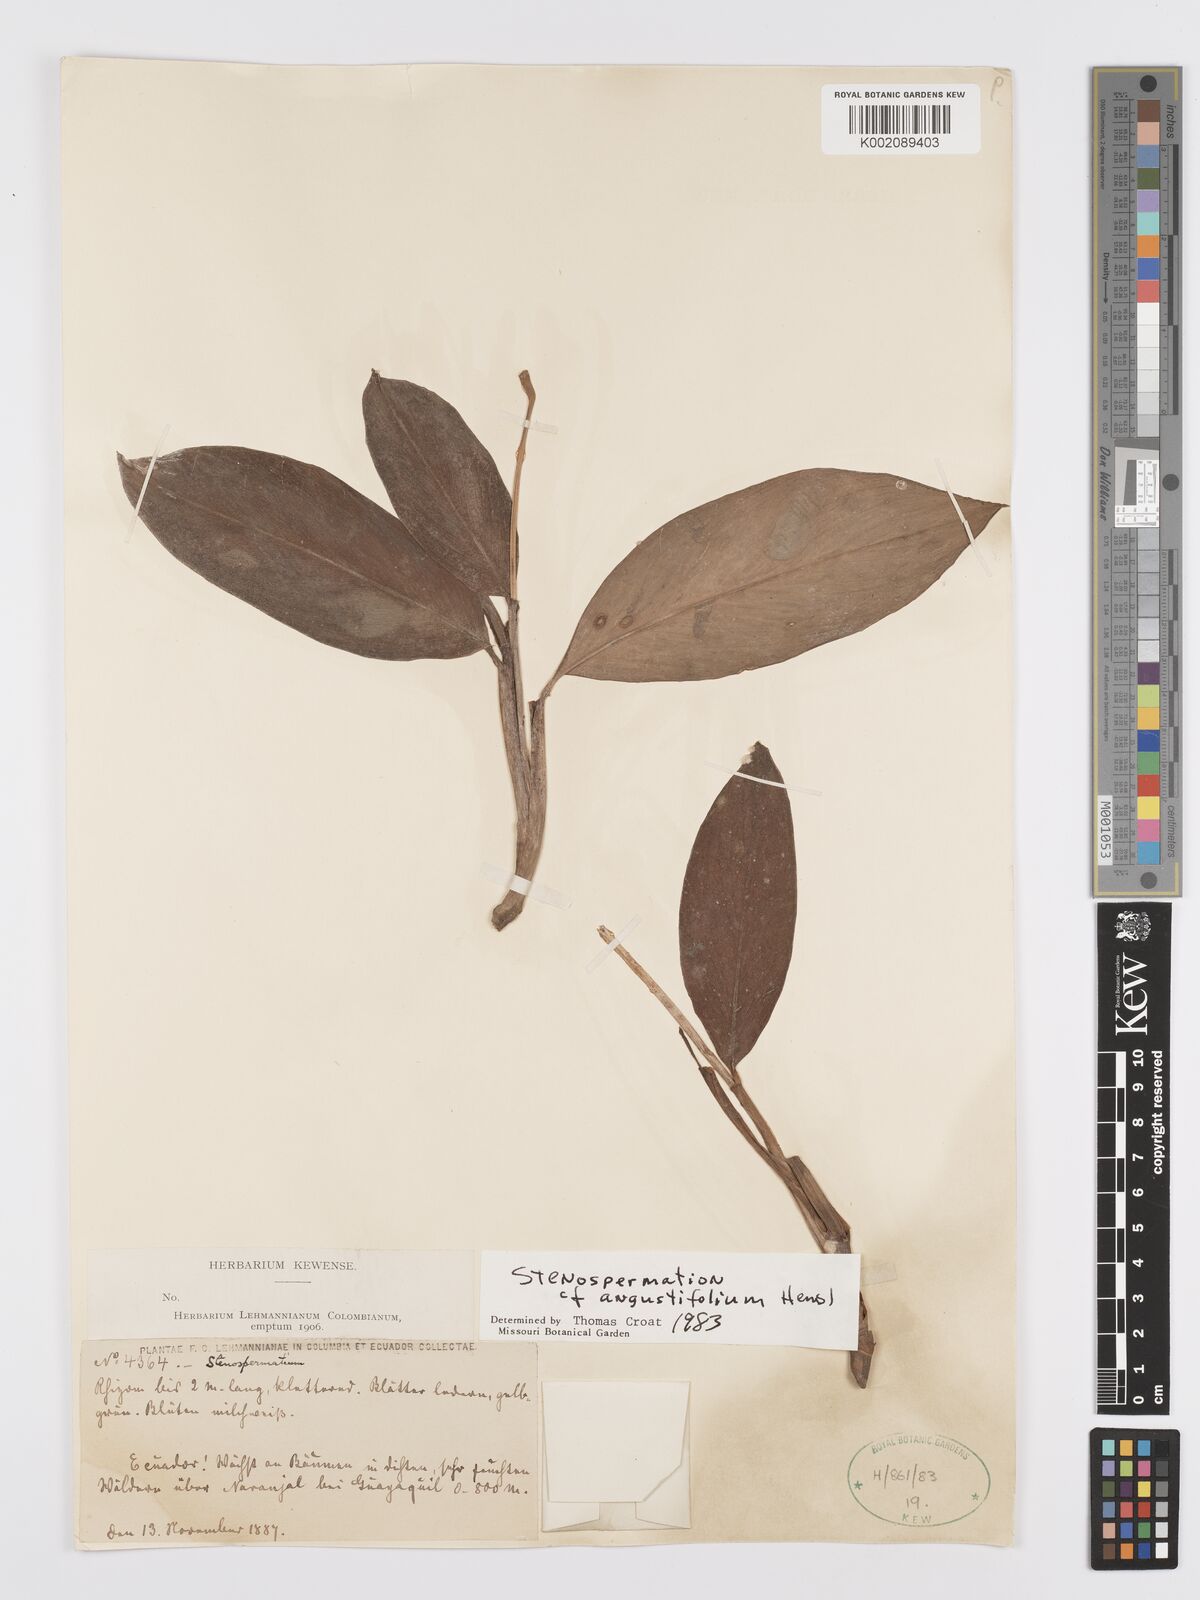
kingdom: Plantae
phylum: Tracheophyta
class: Liliopsida
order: Alismatales
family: Araceae
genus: Stenospermation
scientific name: Stenospermation angustifolium
